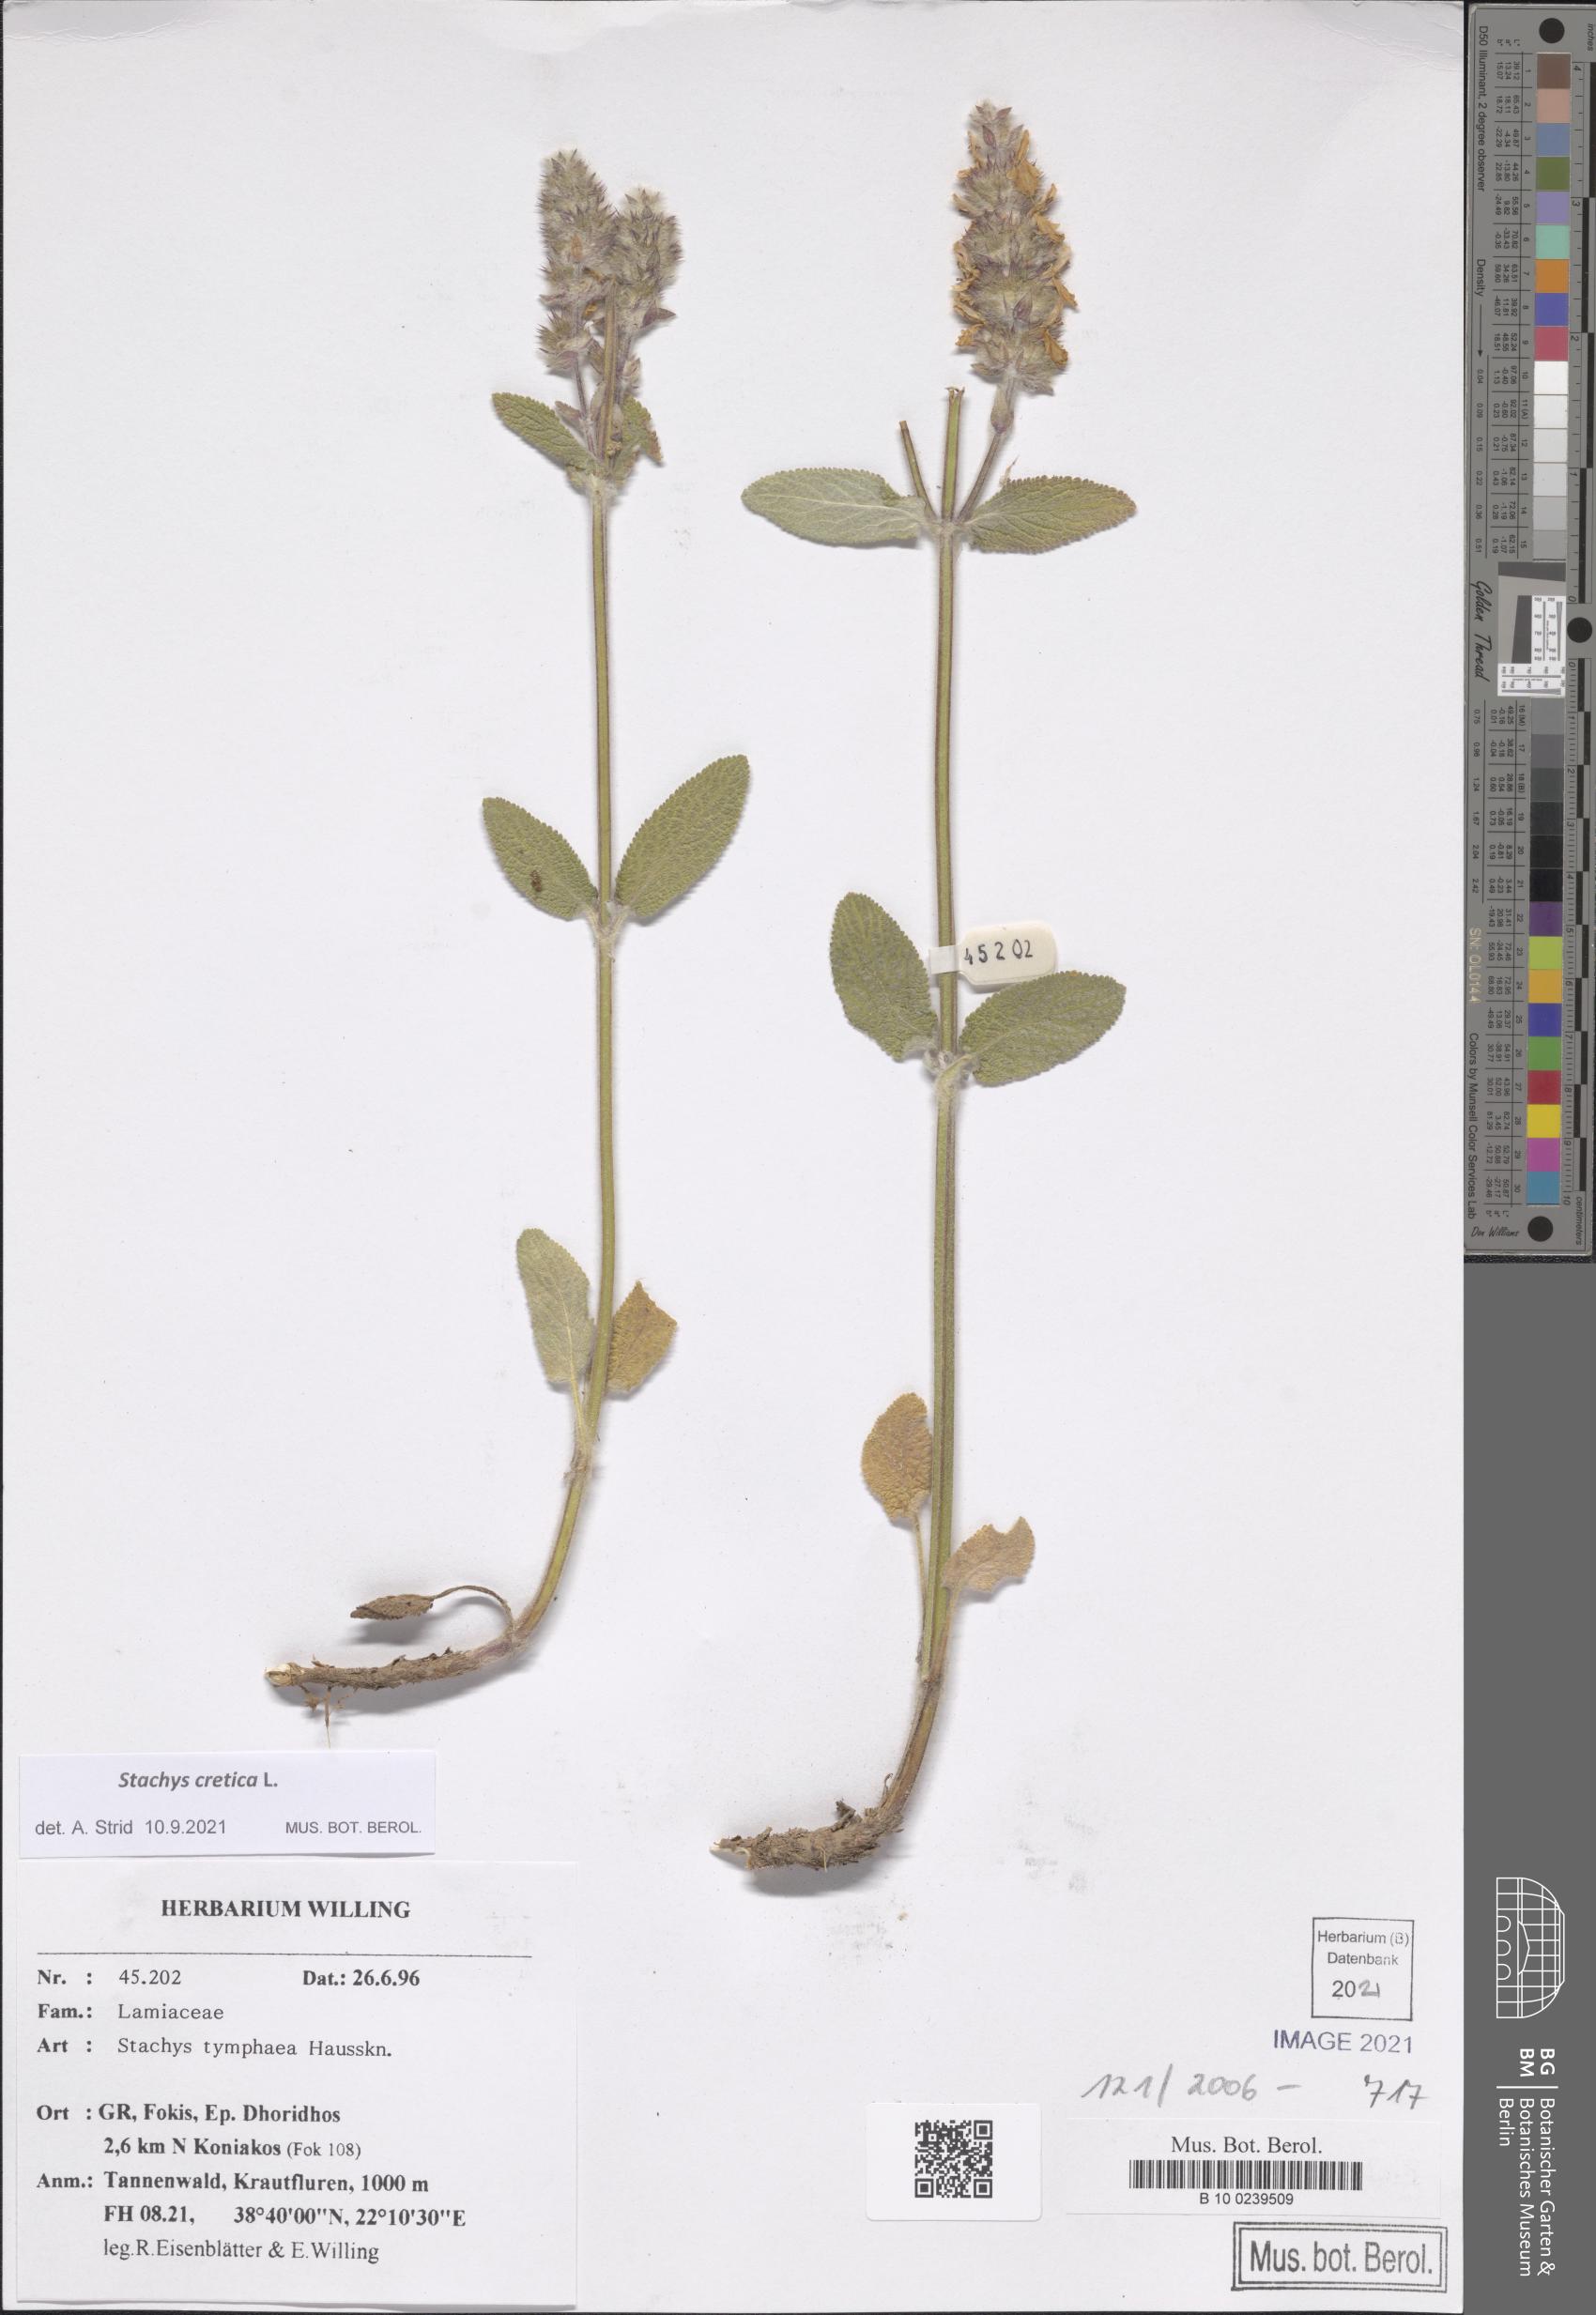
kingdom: Plantae
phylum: Tracheophyta
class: Magnoliopsida
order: Lamiales
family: Lamiaceae
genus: Stachys
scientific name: Stachys cretica
